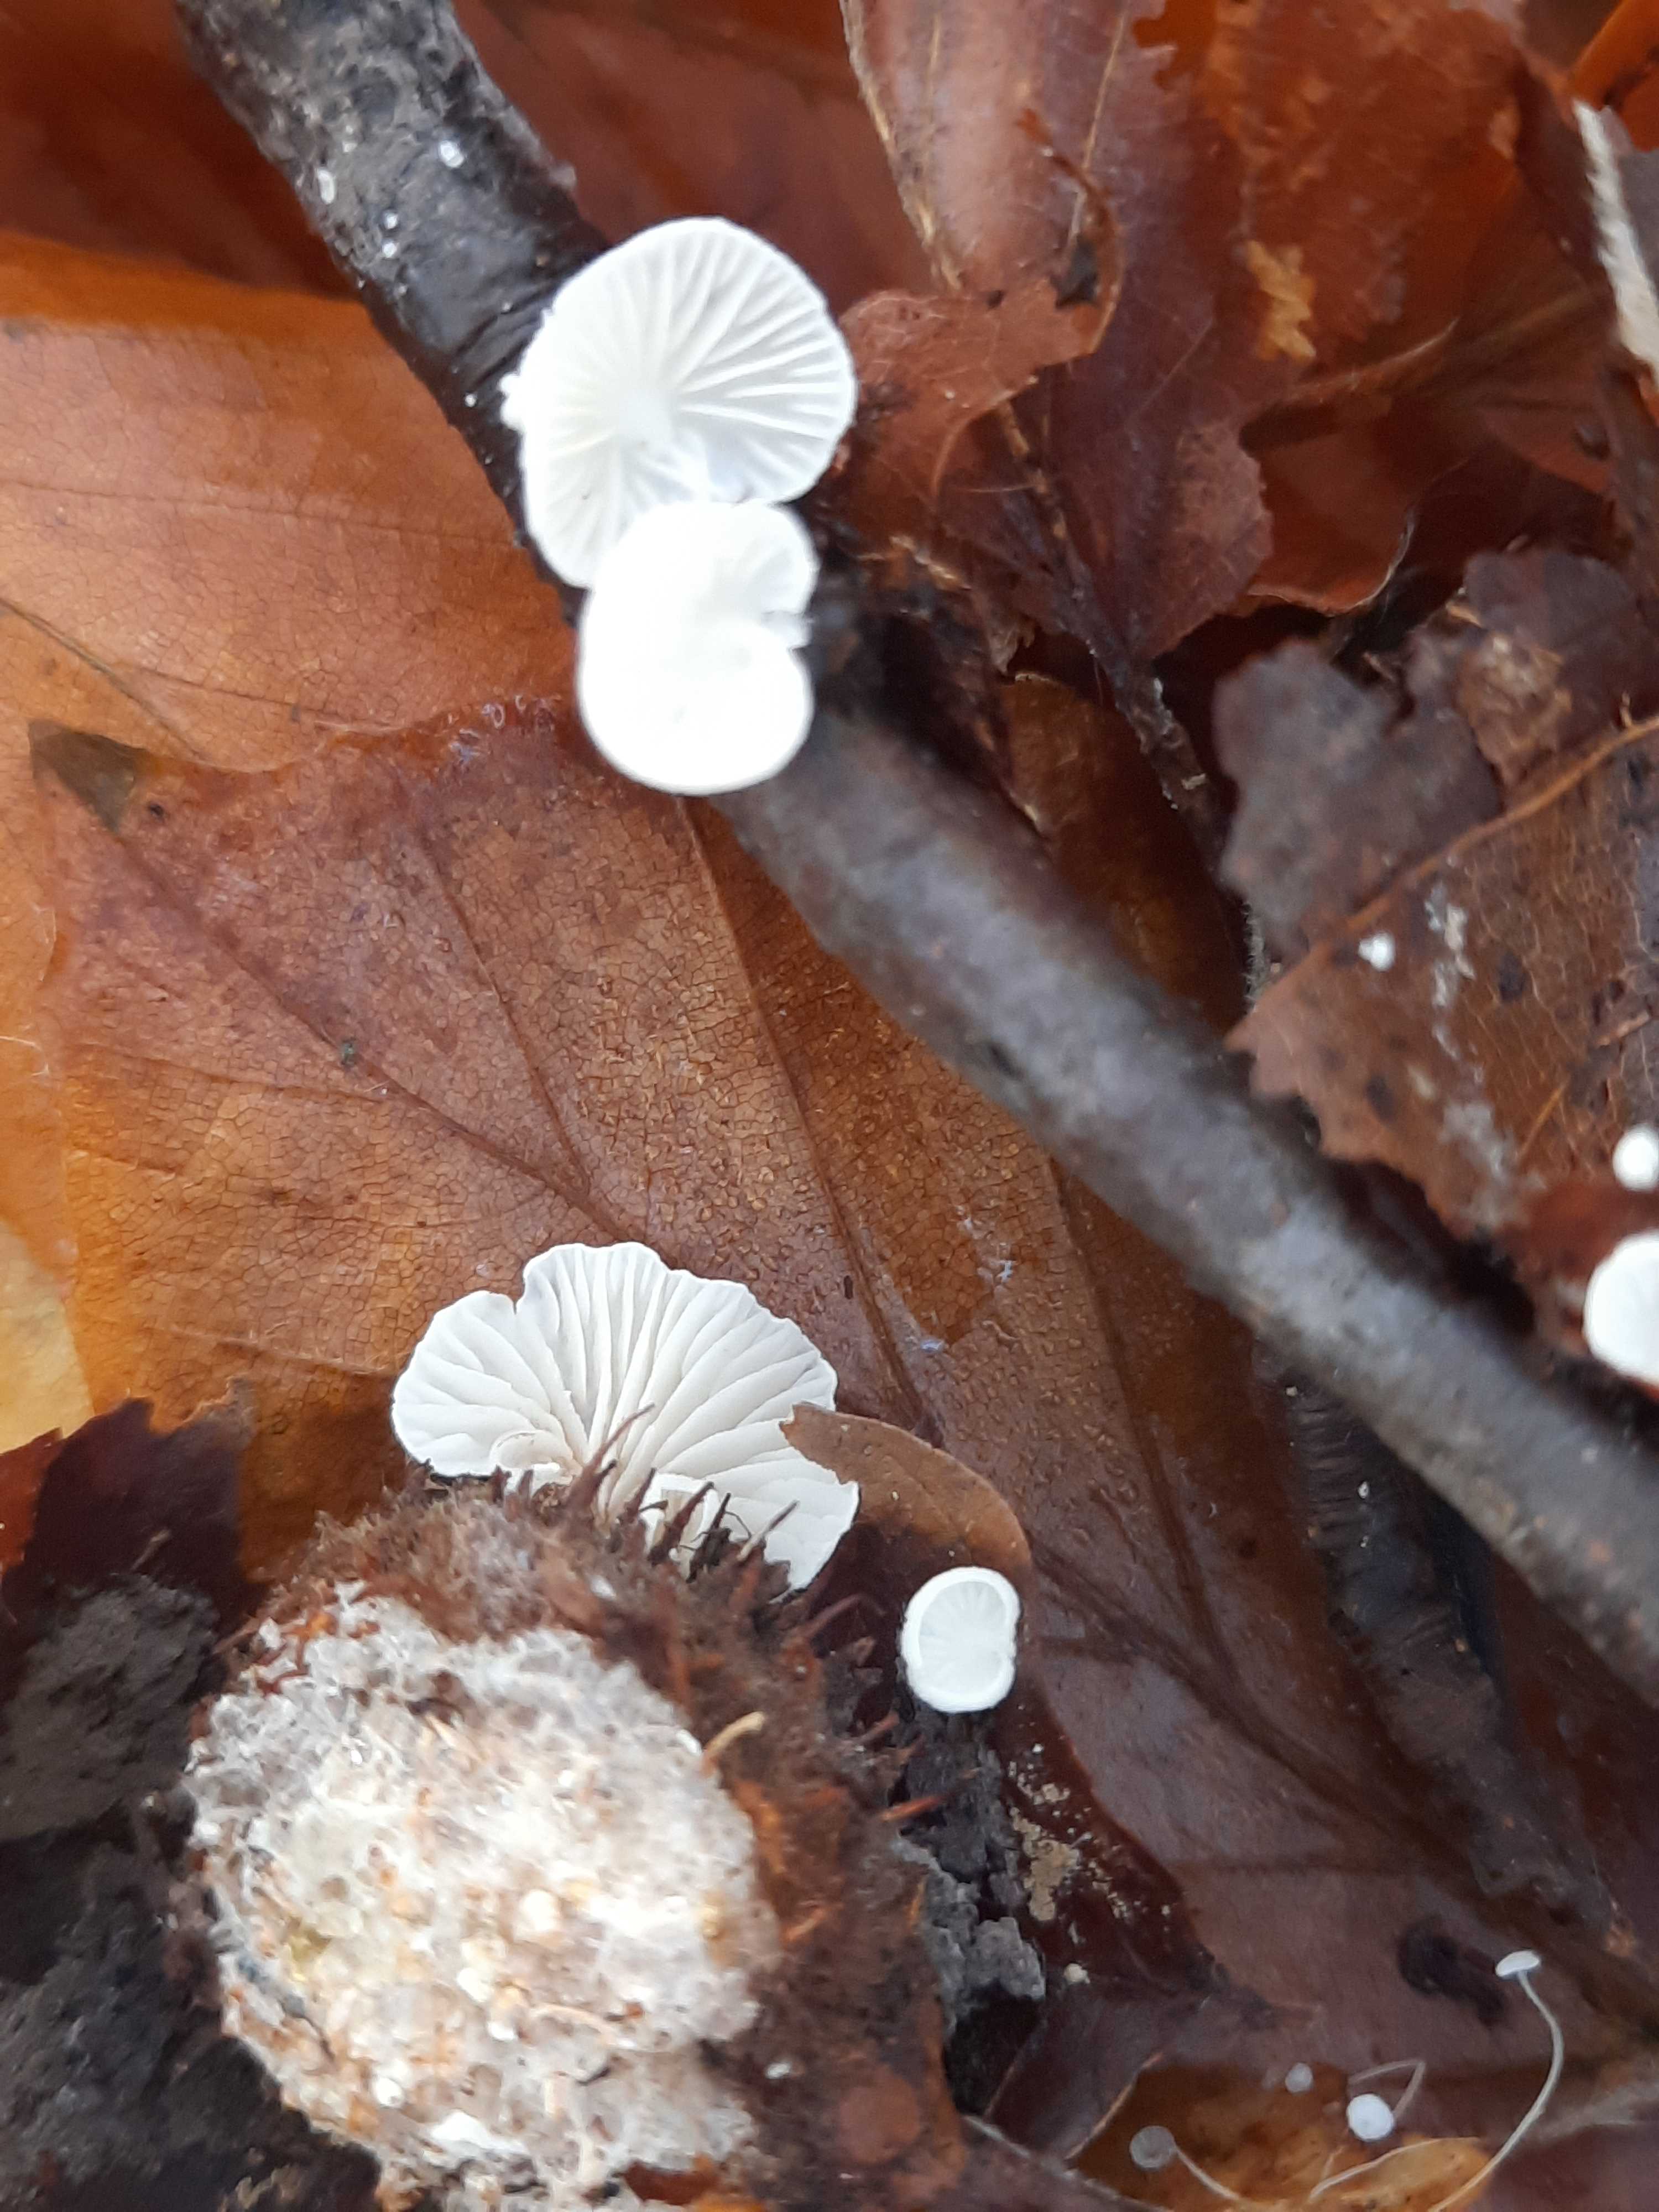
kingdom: Fungi
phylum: Basidiomycota
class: Agaricomycetes
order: Agaricales
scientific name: Agaricales
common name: champignonordenen
